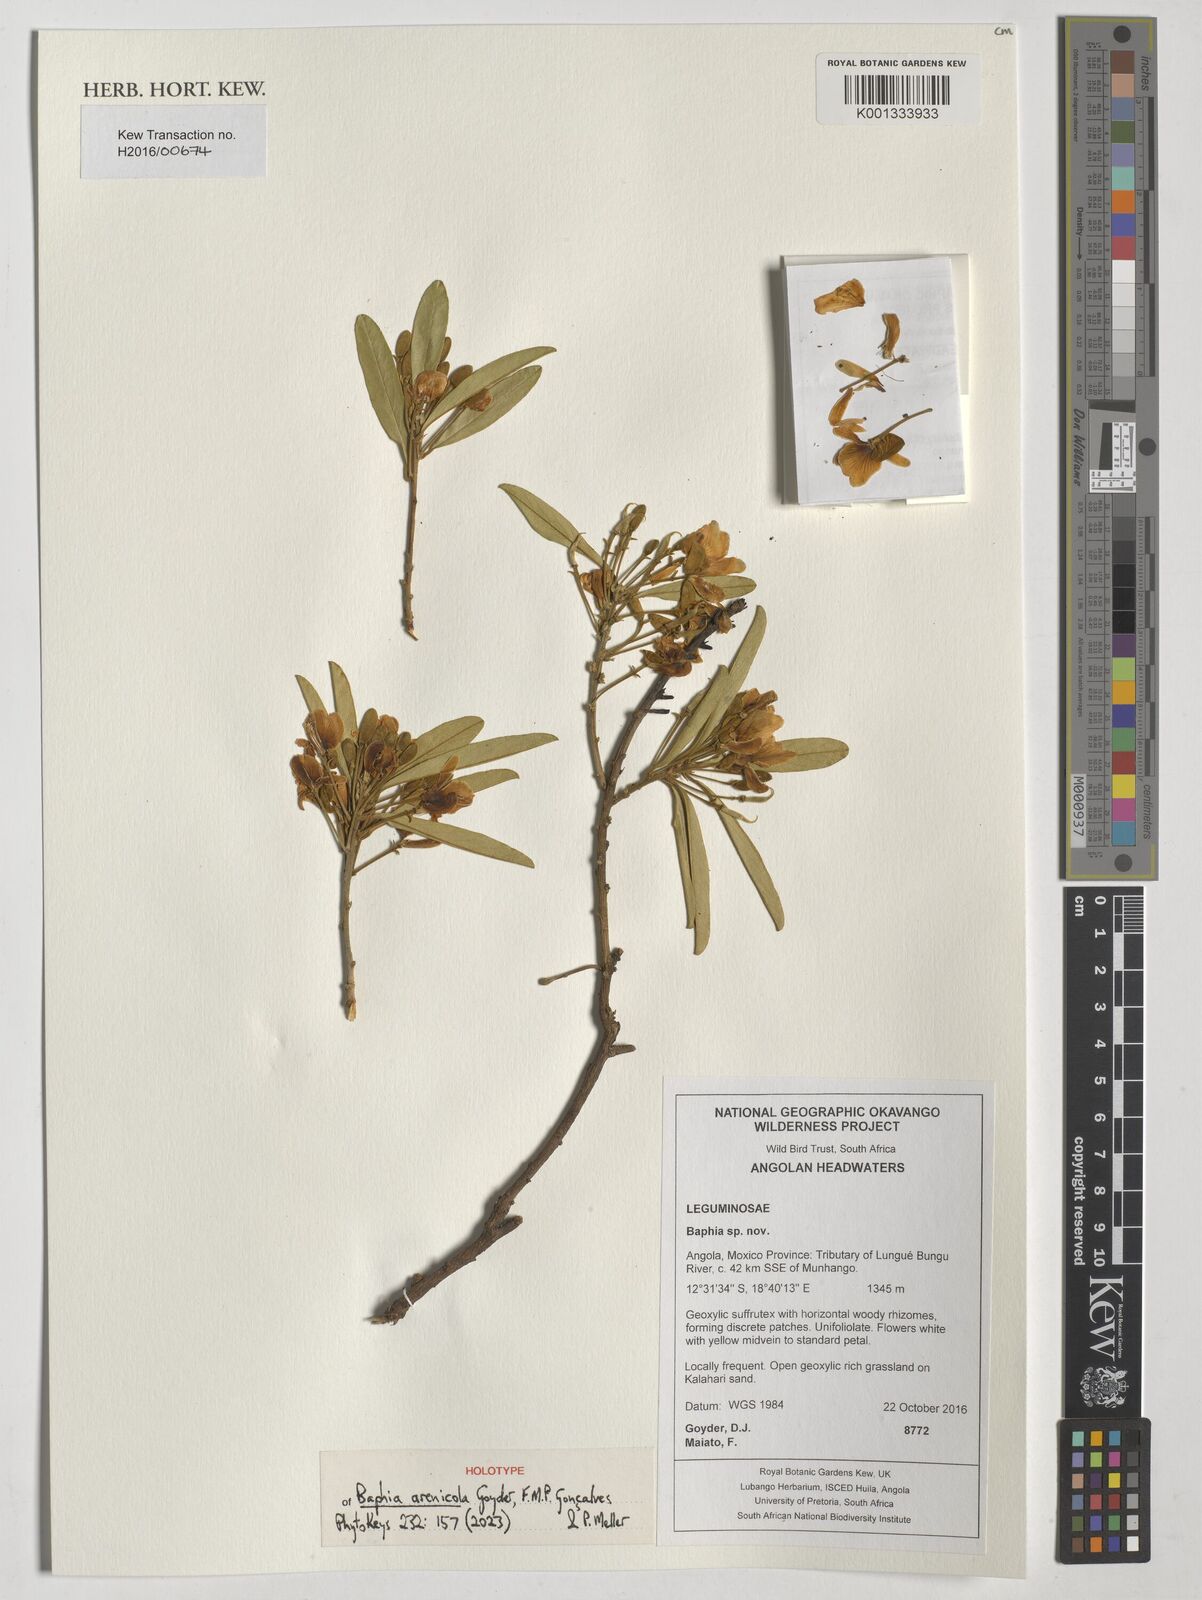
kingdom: Plantae
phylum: Tracheophyta
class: Magnoliopsida
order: Fabales
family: Fabaceae
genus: Baphia
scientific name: Baphia
